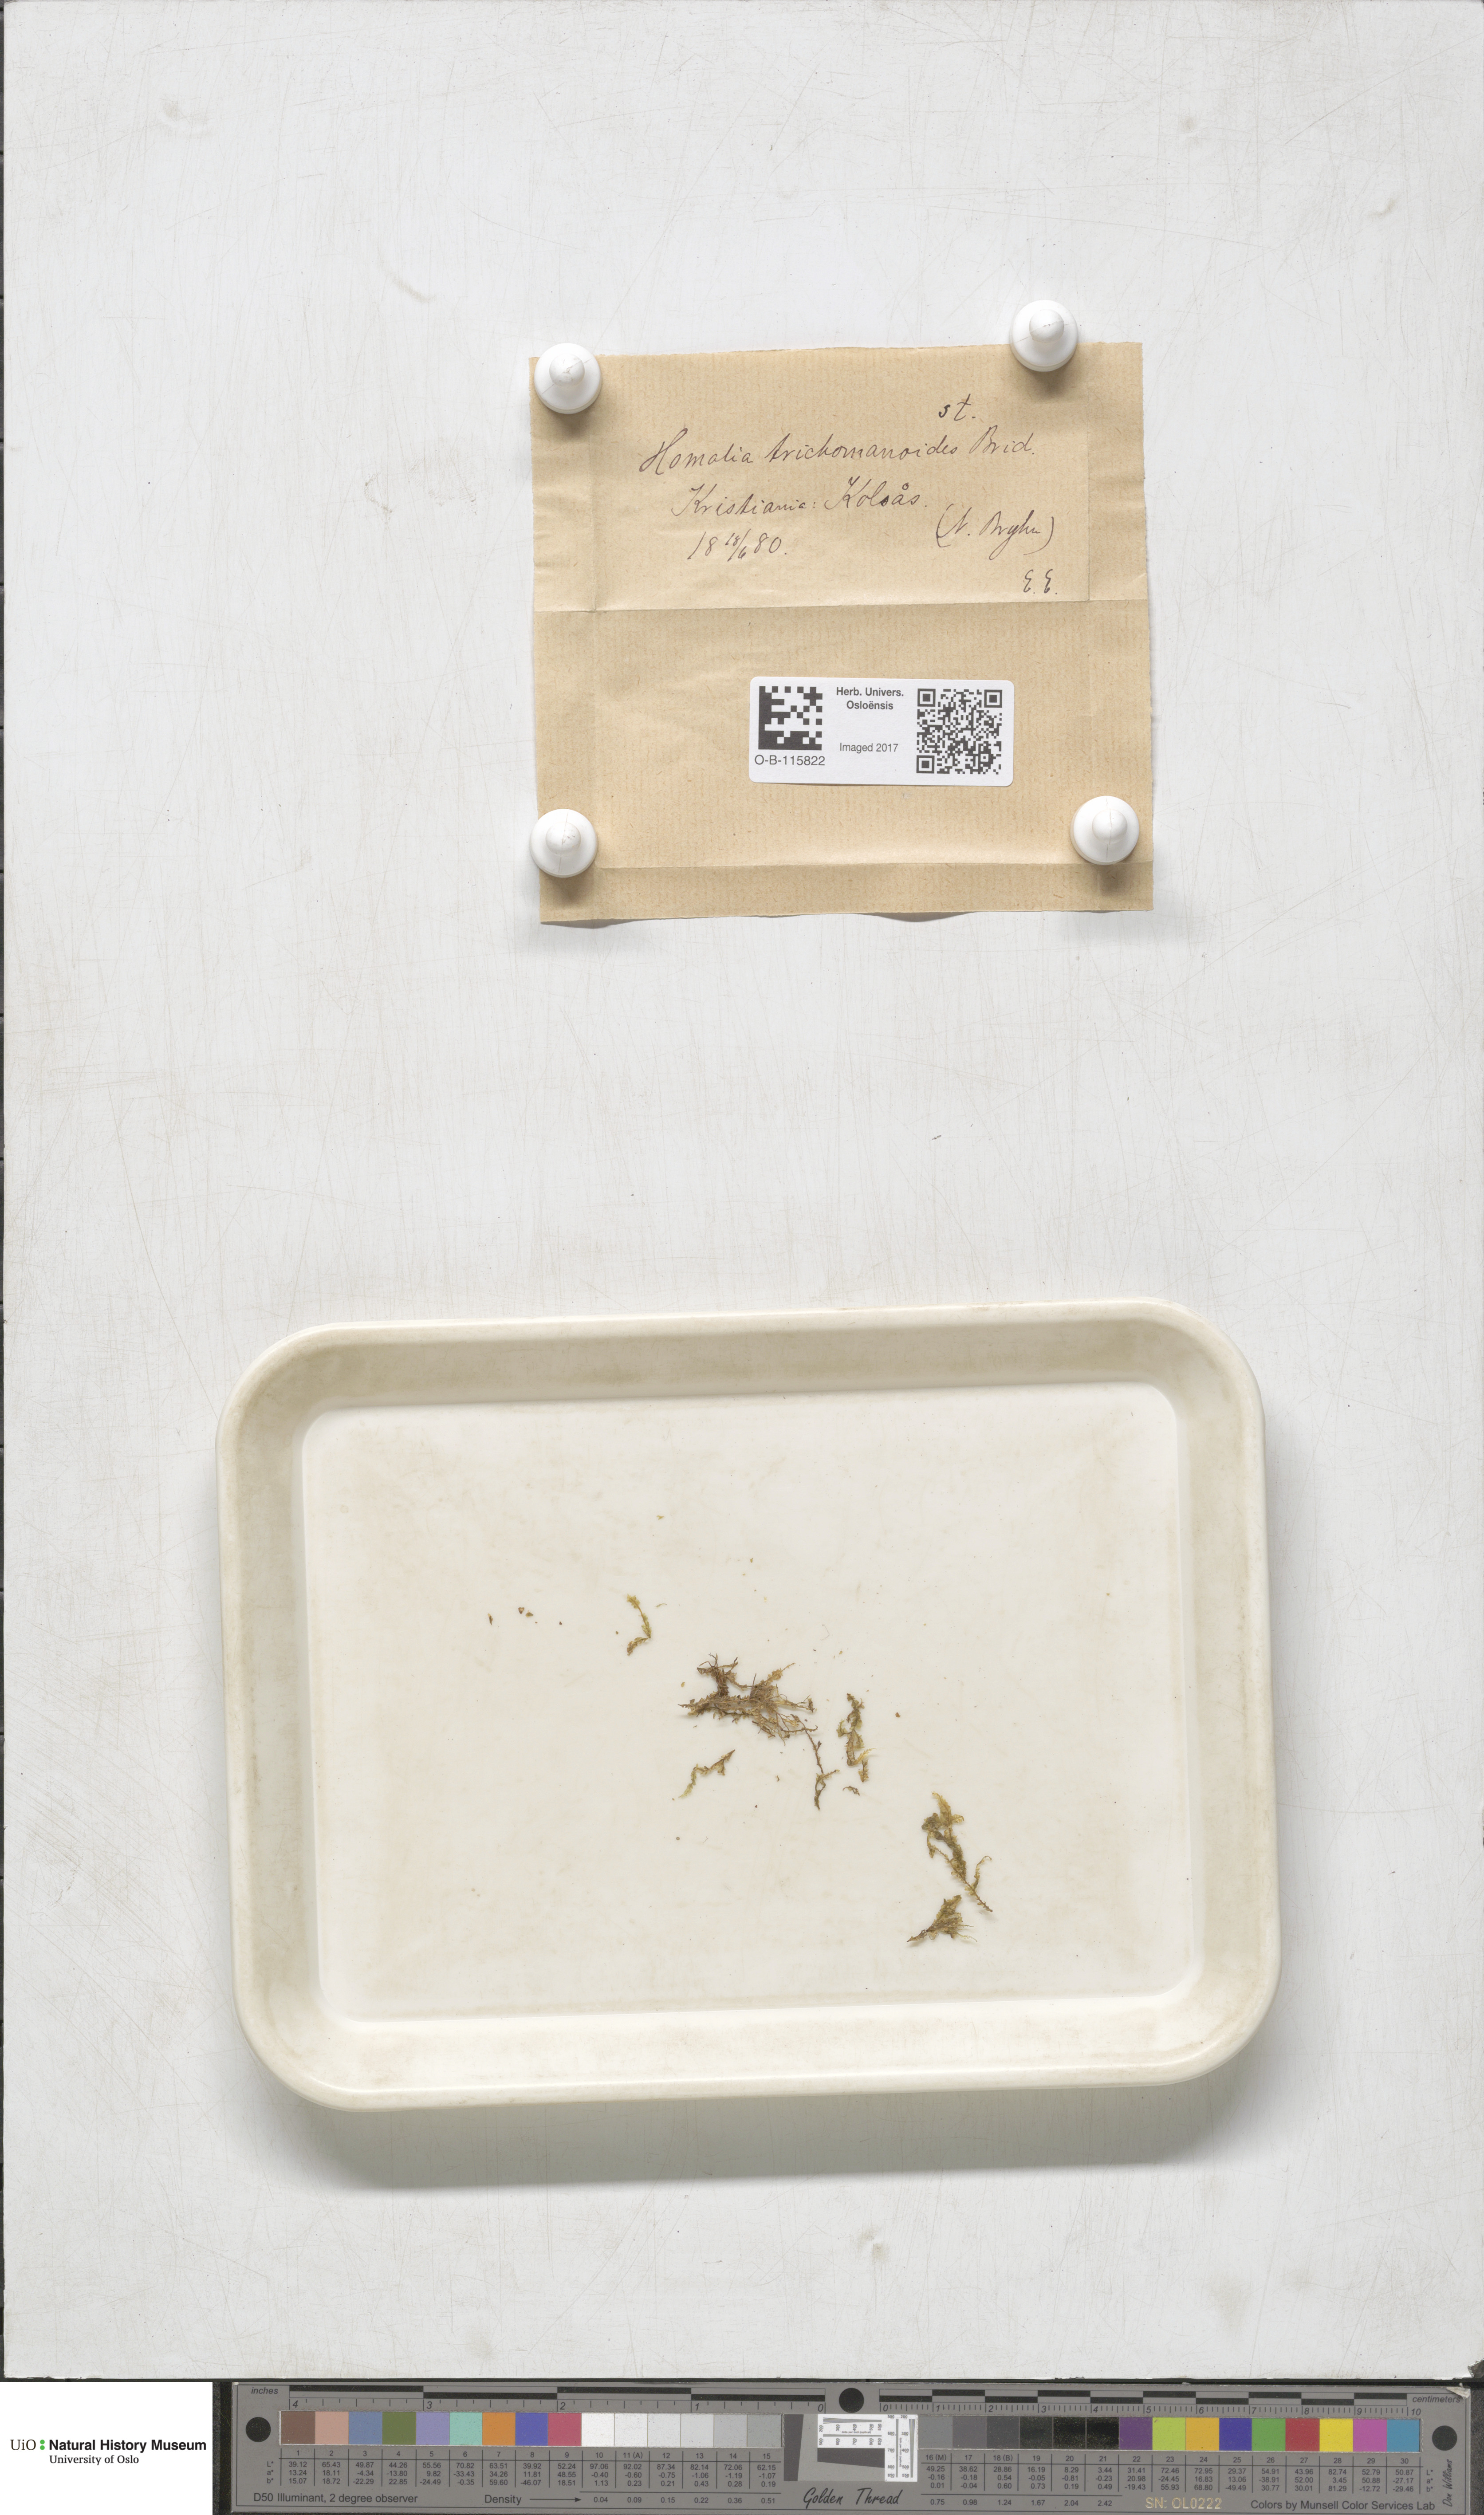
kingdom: Plantae
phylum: Bryophyta
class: Bryopsida
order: Hypnales
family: Neckeraceae
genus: Homalia
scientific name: Homalia trichomanoides
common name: Lime homalia moss
